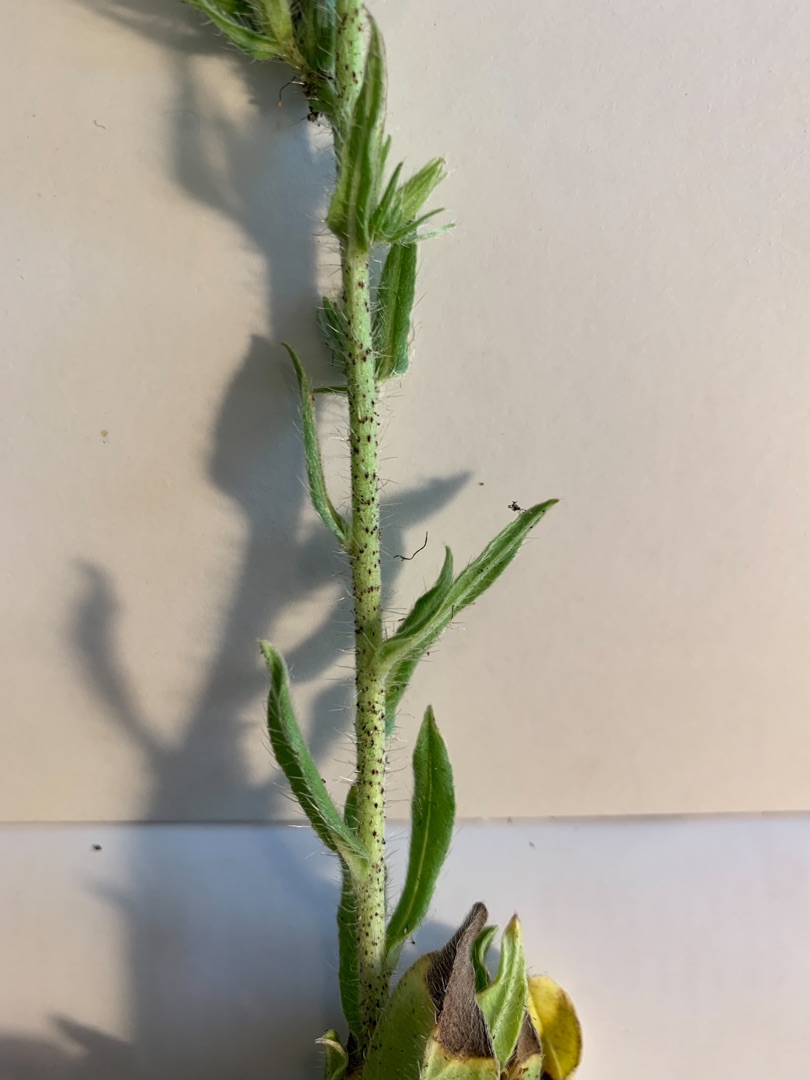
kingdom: Plantae
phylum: Tracheophyta
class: Magnoliopsida
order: Boraginales
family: Boraginaceae
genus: Echium
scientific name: Echium vulgare
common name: Slangehoved
